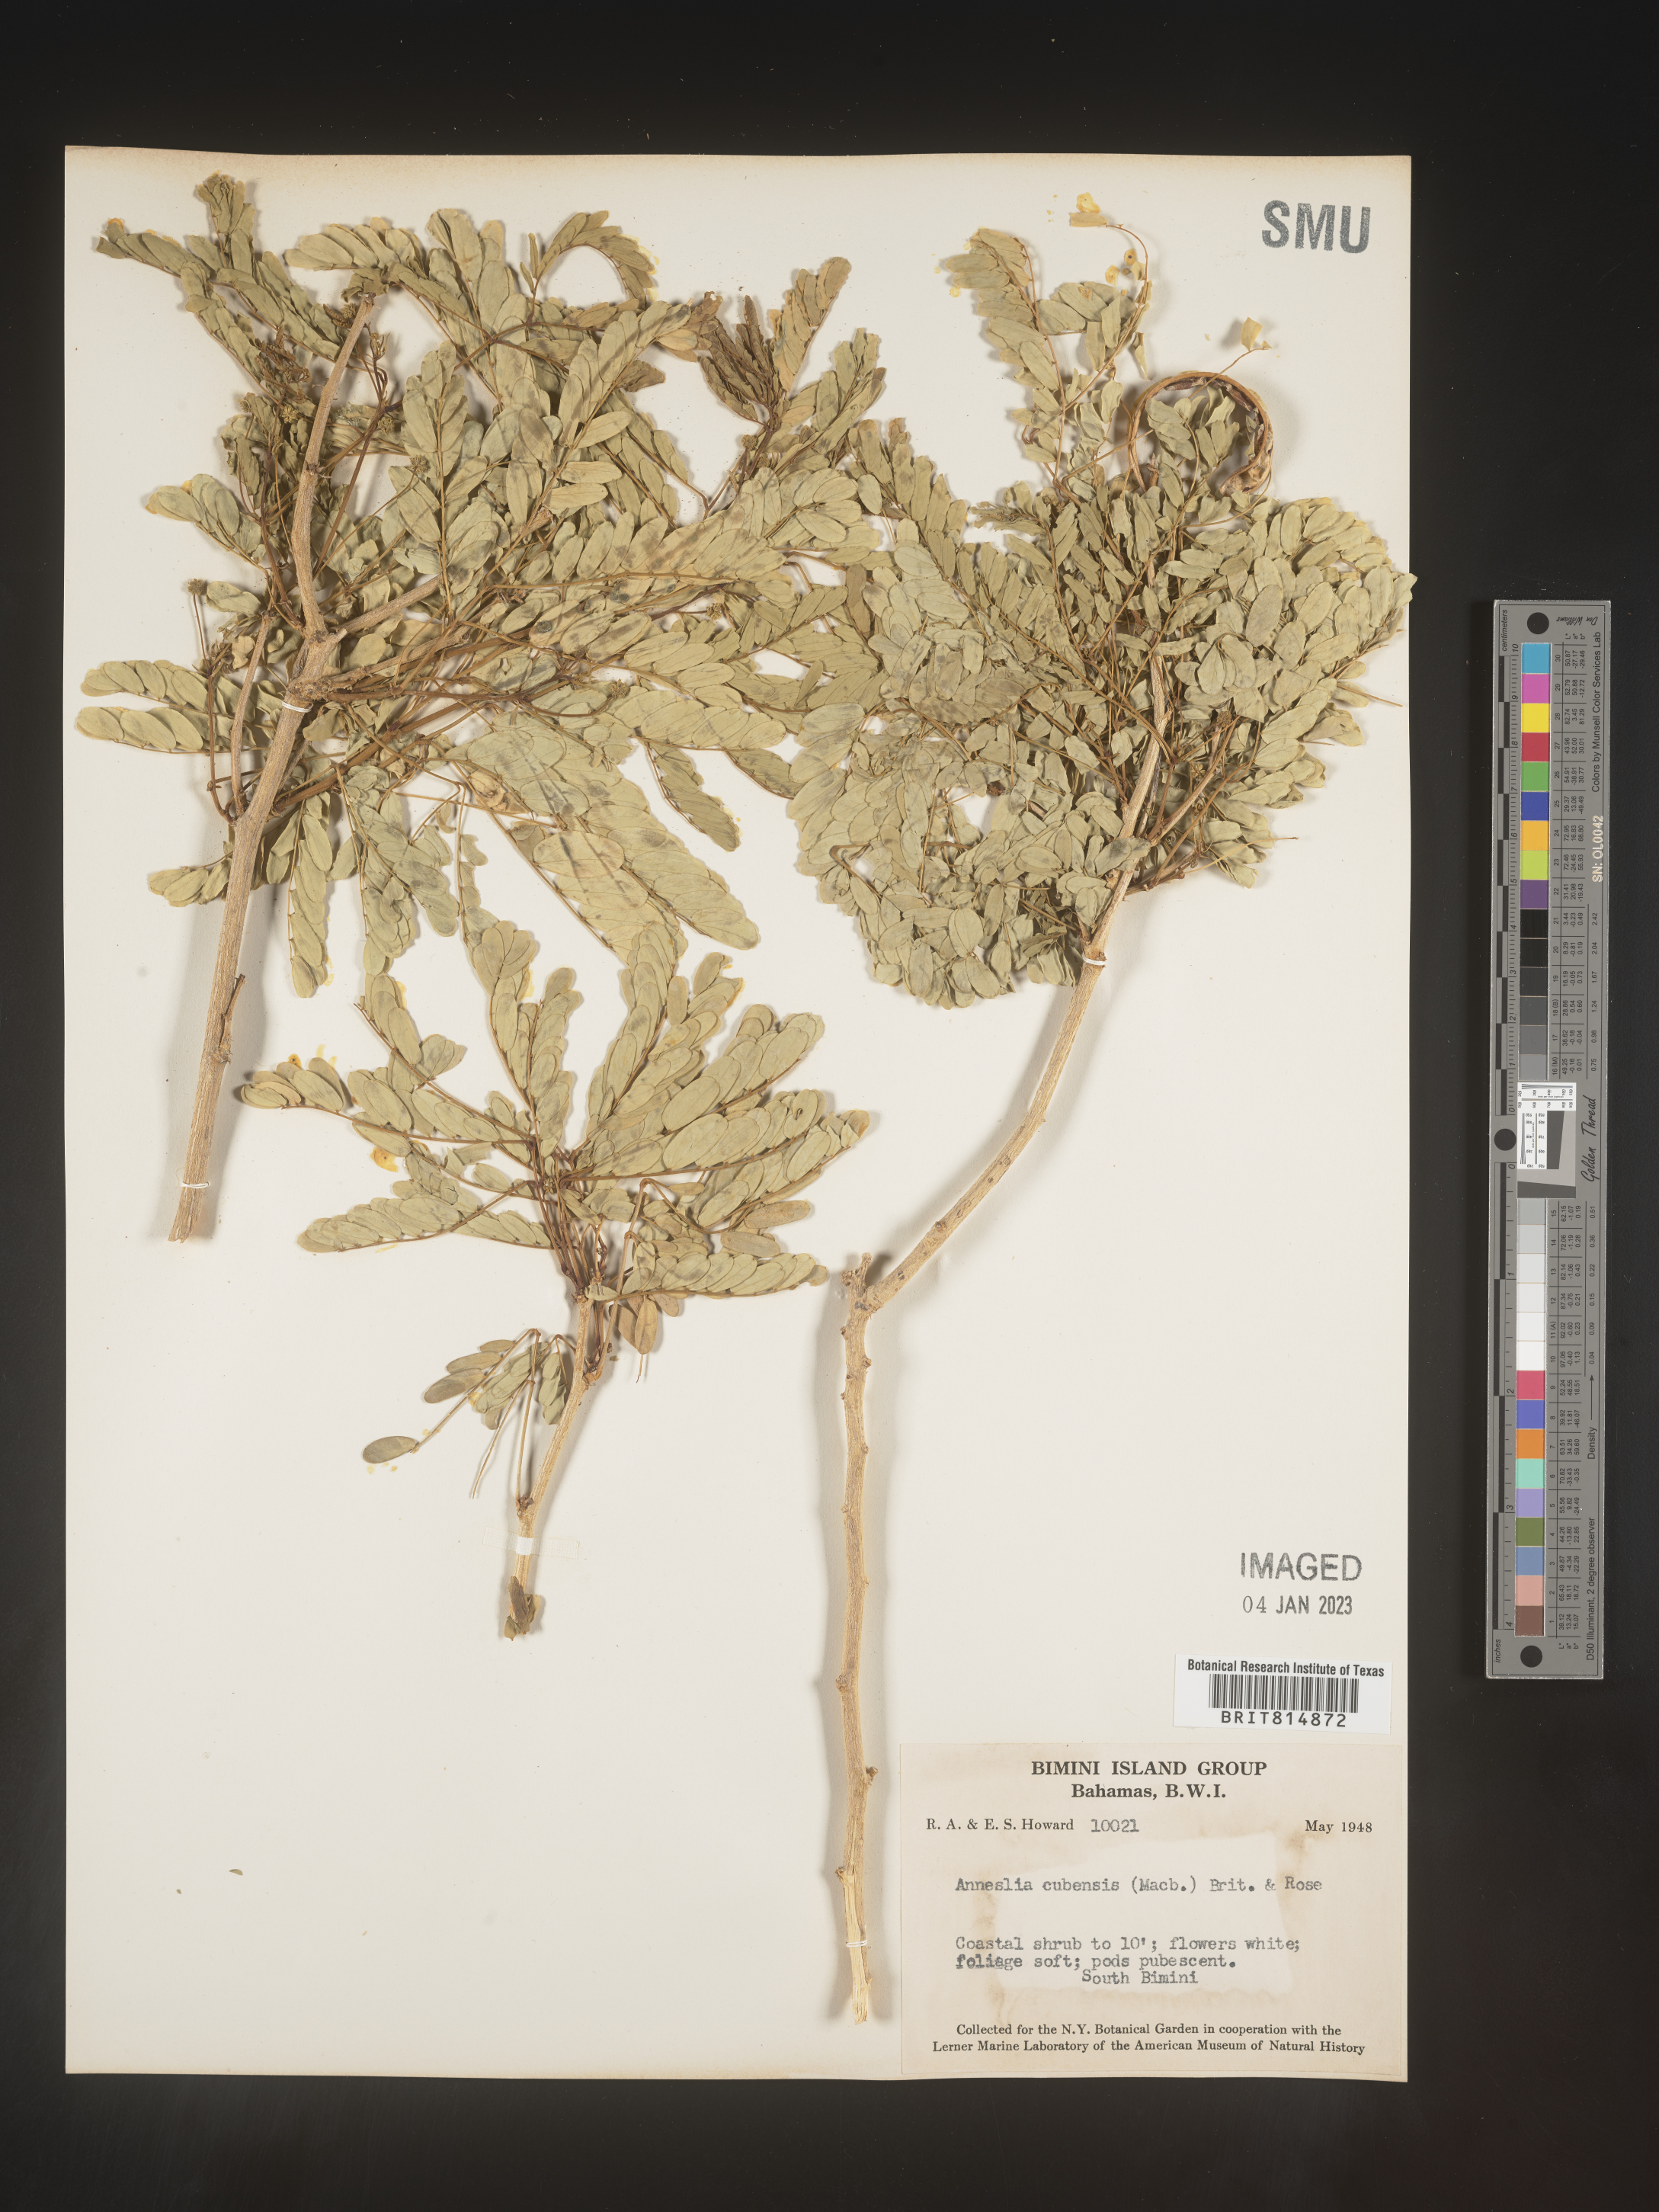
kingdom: Plantae
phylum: Tracheophyta
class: Magnoliopsida
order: Fabales
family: Fabaceae
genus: Calliandra
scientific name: Calliandra
